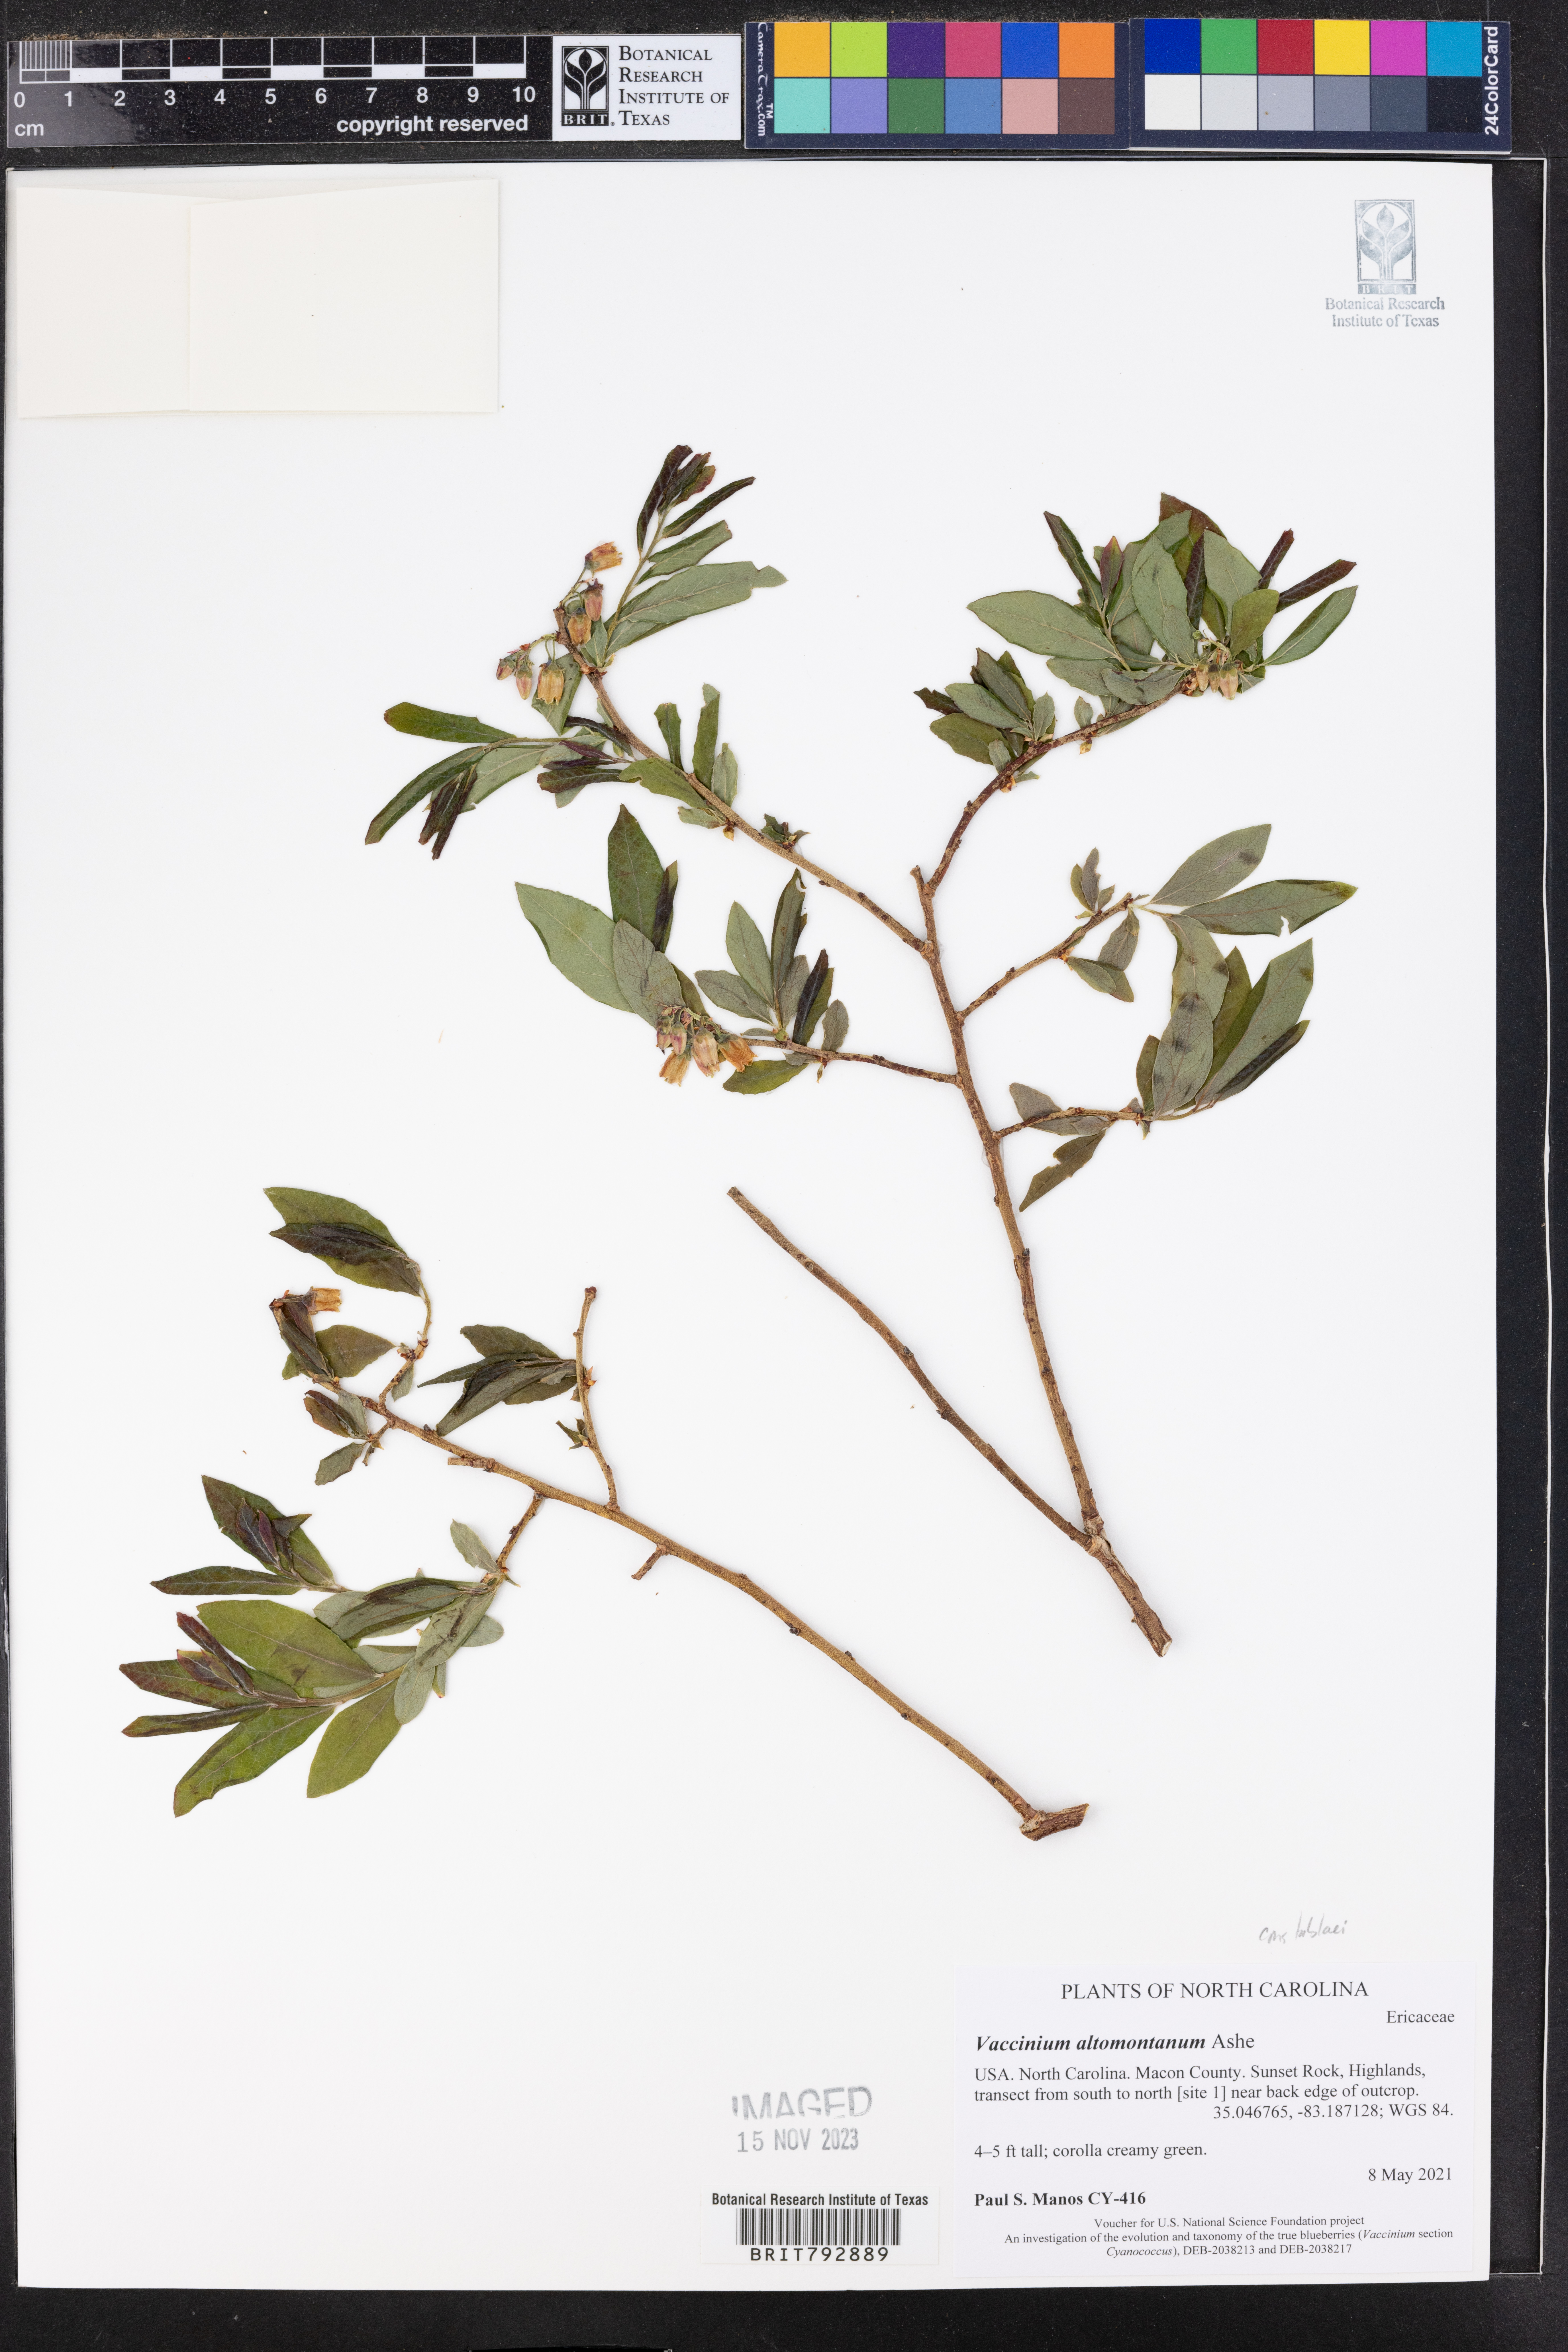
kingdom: Plantae
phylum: Tracheophyta
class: Magnoliopsida
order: Ericales
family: Ericaceae
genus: Vaccinium
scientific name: Vaccinium pallidum
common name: Blue ridge blueberry
